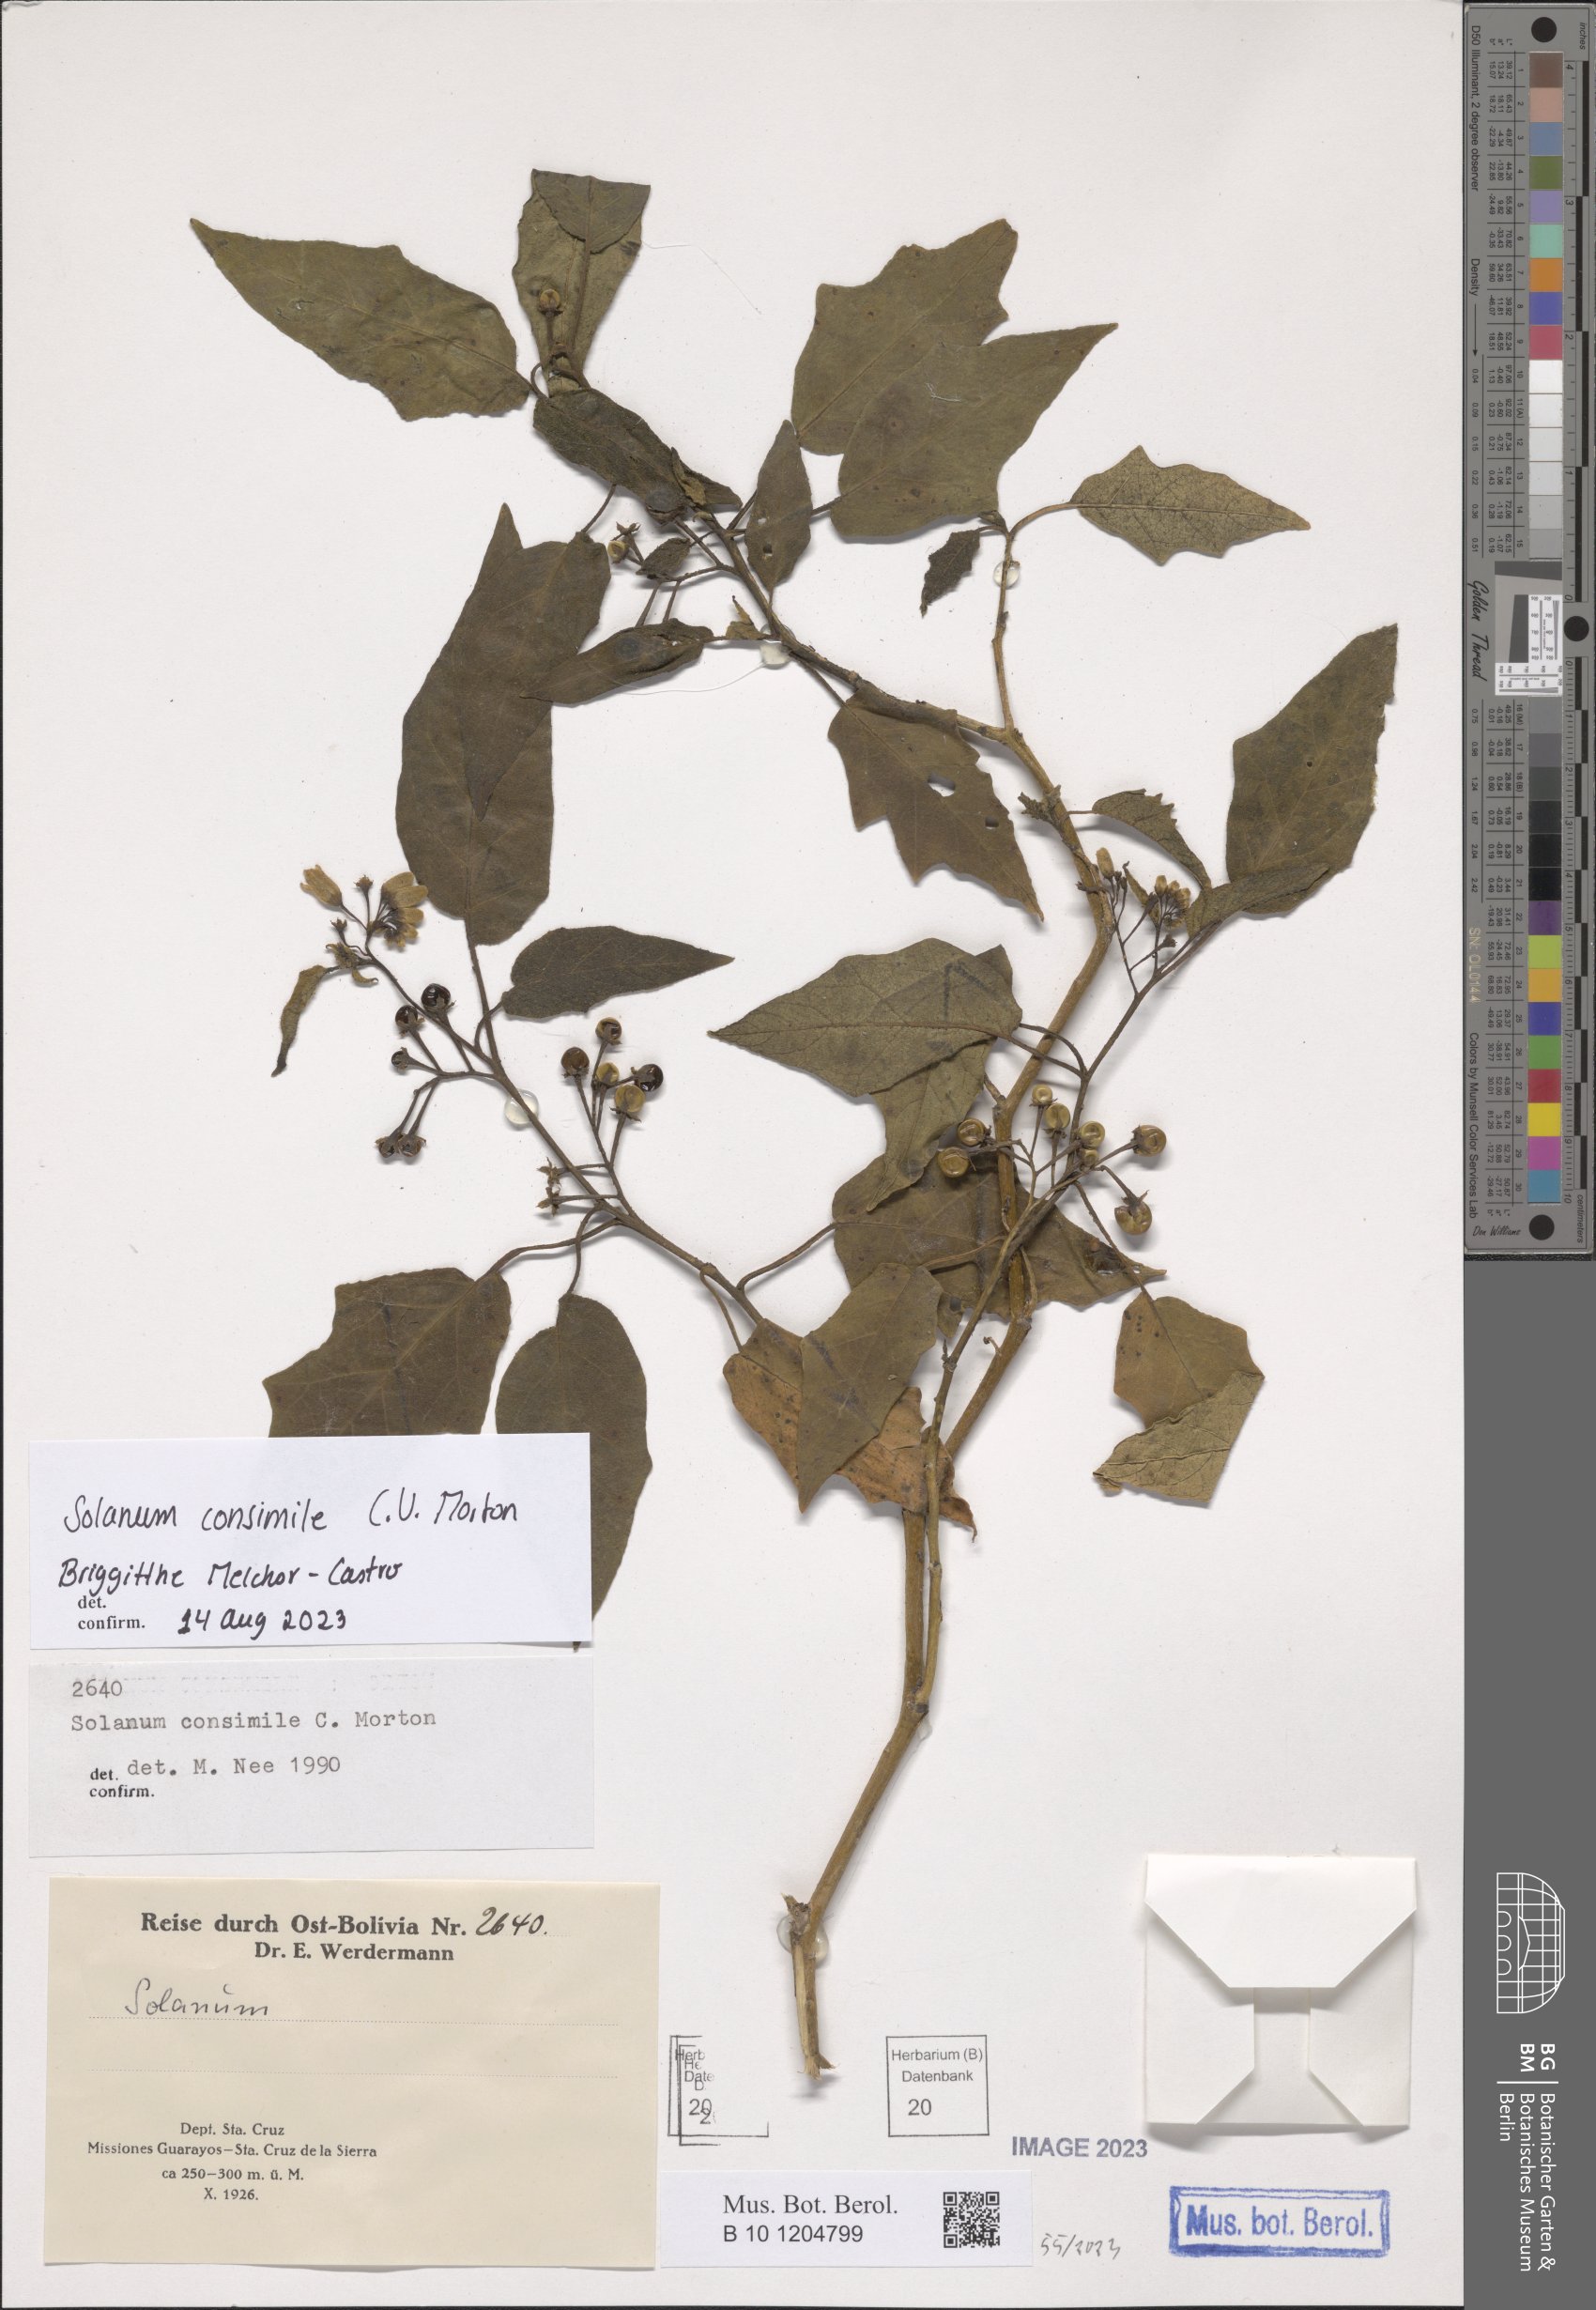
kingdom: Plantae
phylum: Tracheophyta
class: Magnoliopsida
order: Solanales
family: Solanaceae
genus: Solanum
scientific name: Solanum consimile
